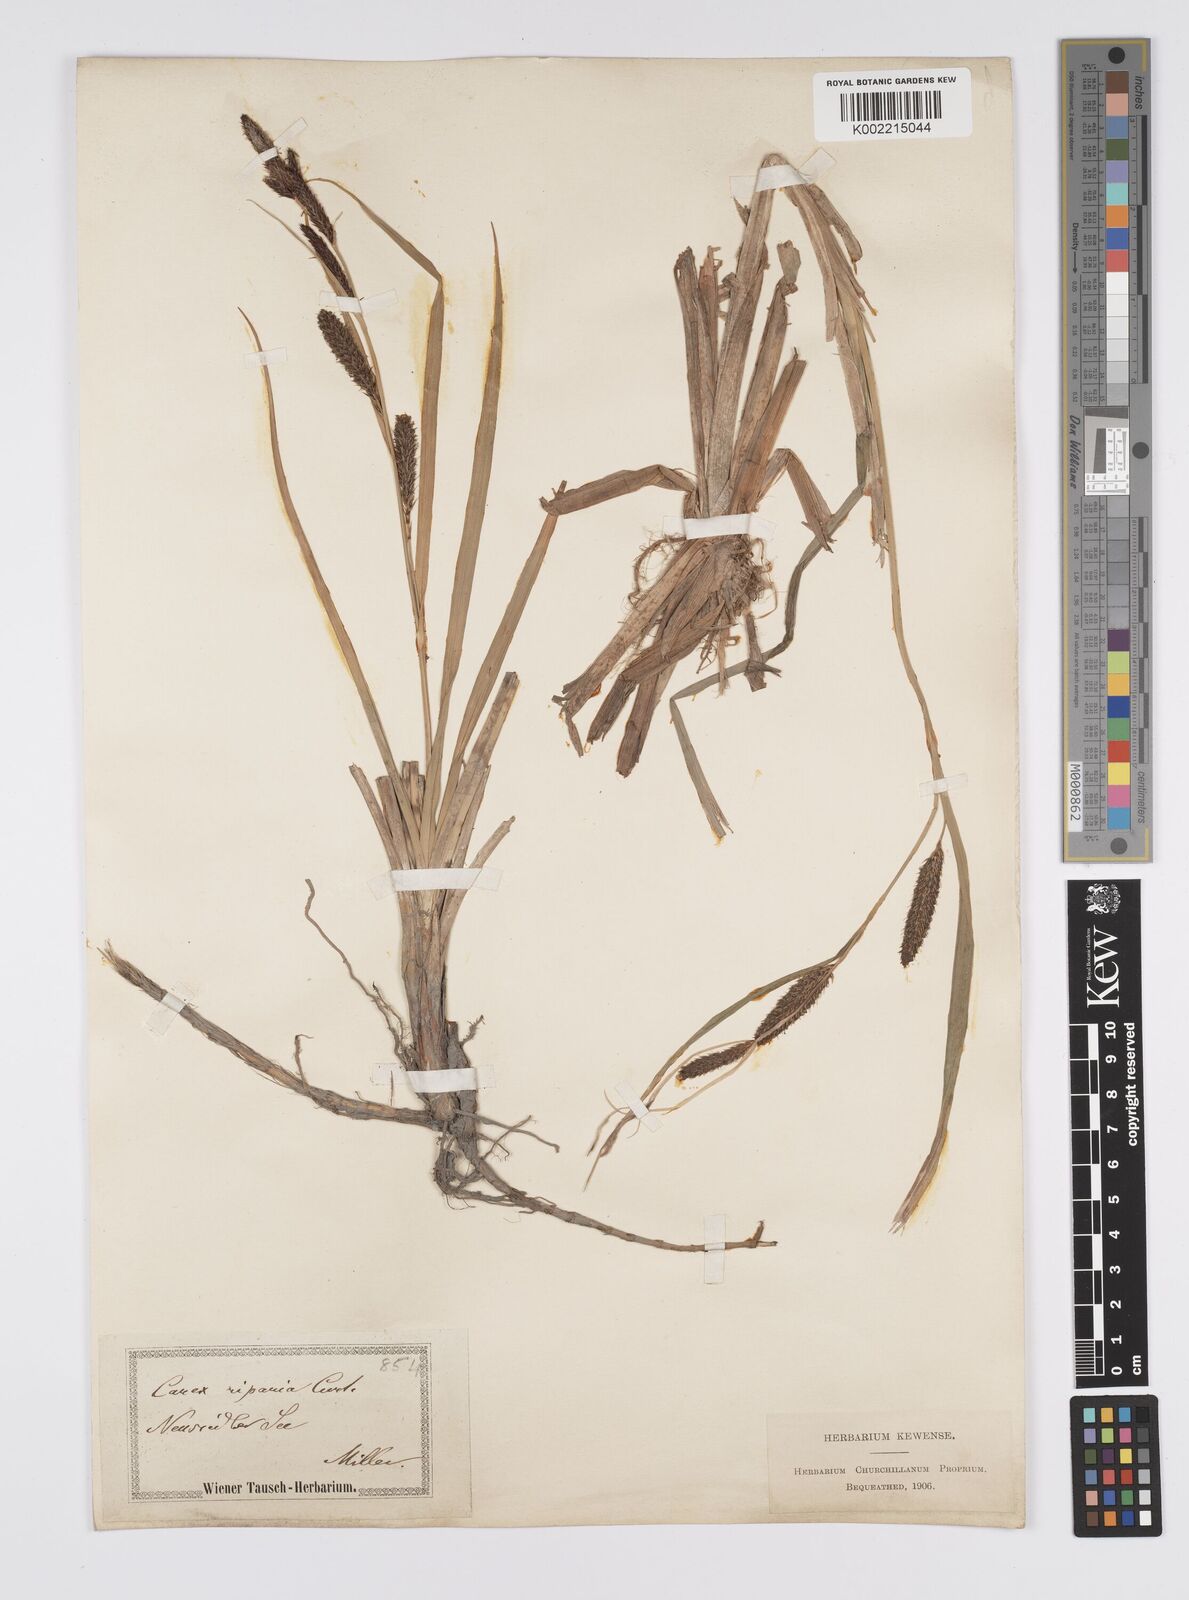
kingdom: Plantae
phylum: Tracheophyta
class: Liliopsida
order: Poales
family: Cyperaceae
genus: Carex
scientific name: Carex riparia
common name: Greater pond-sedge
